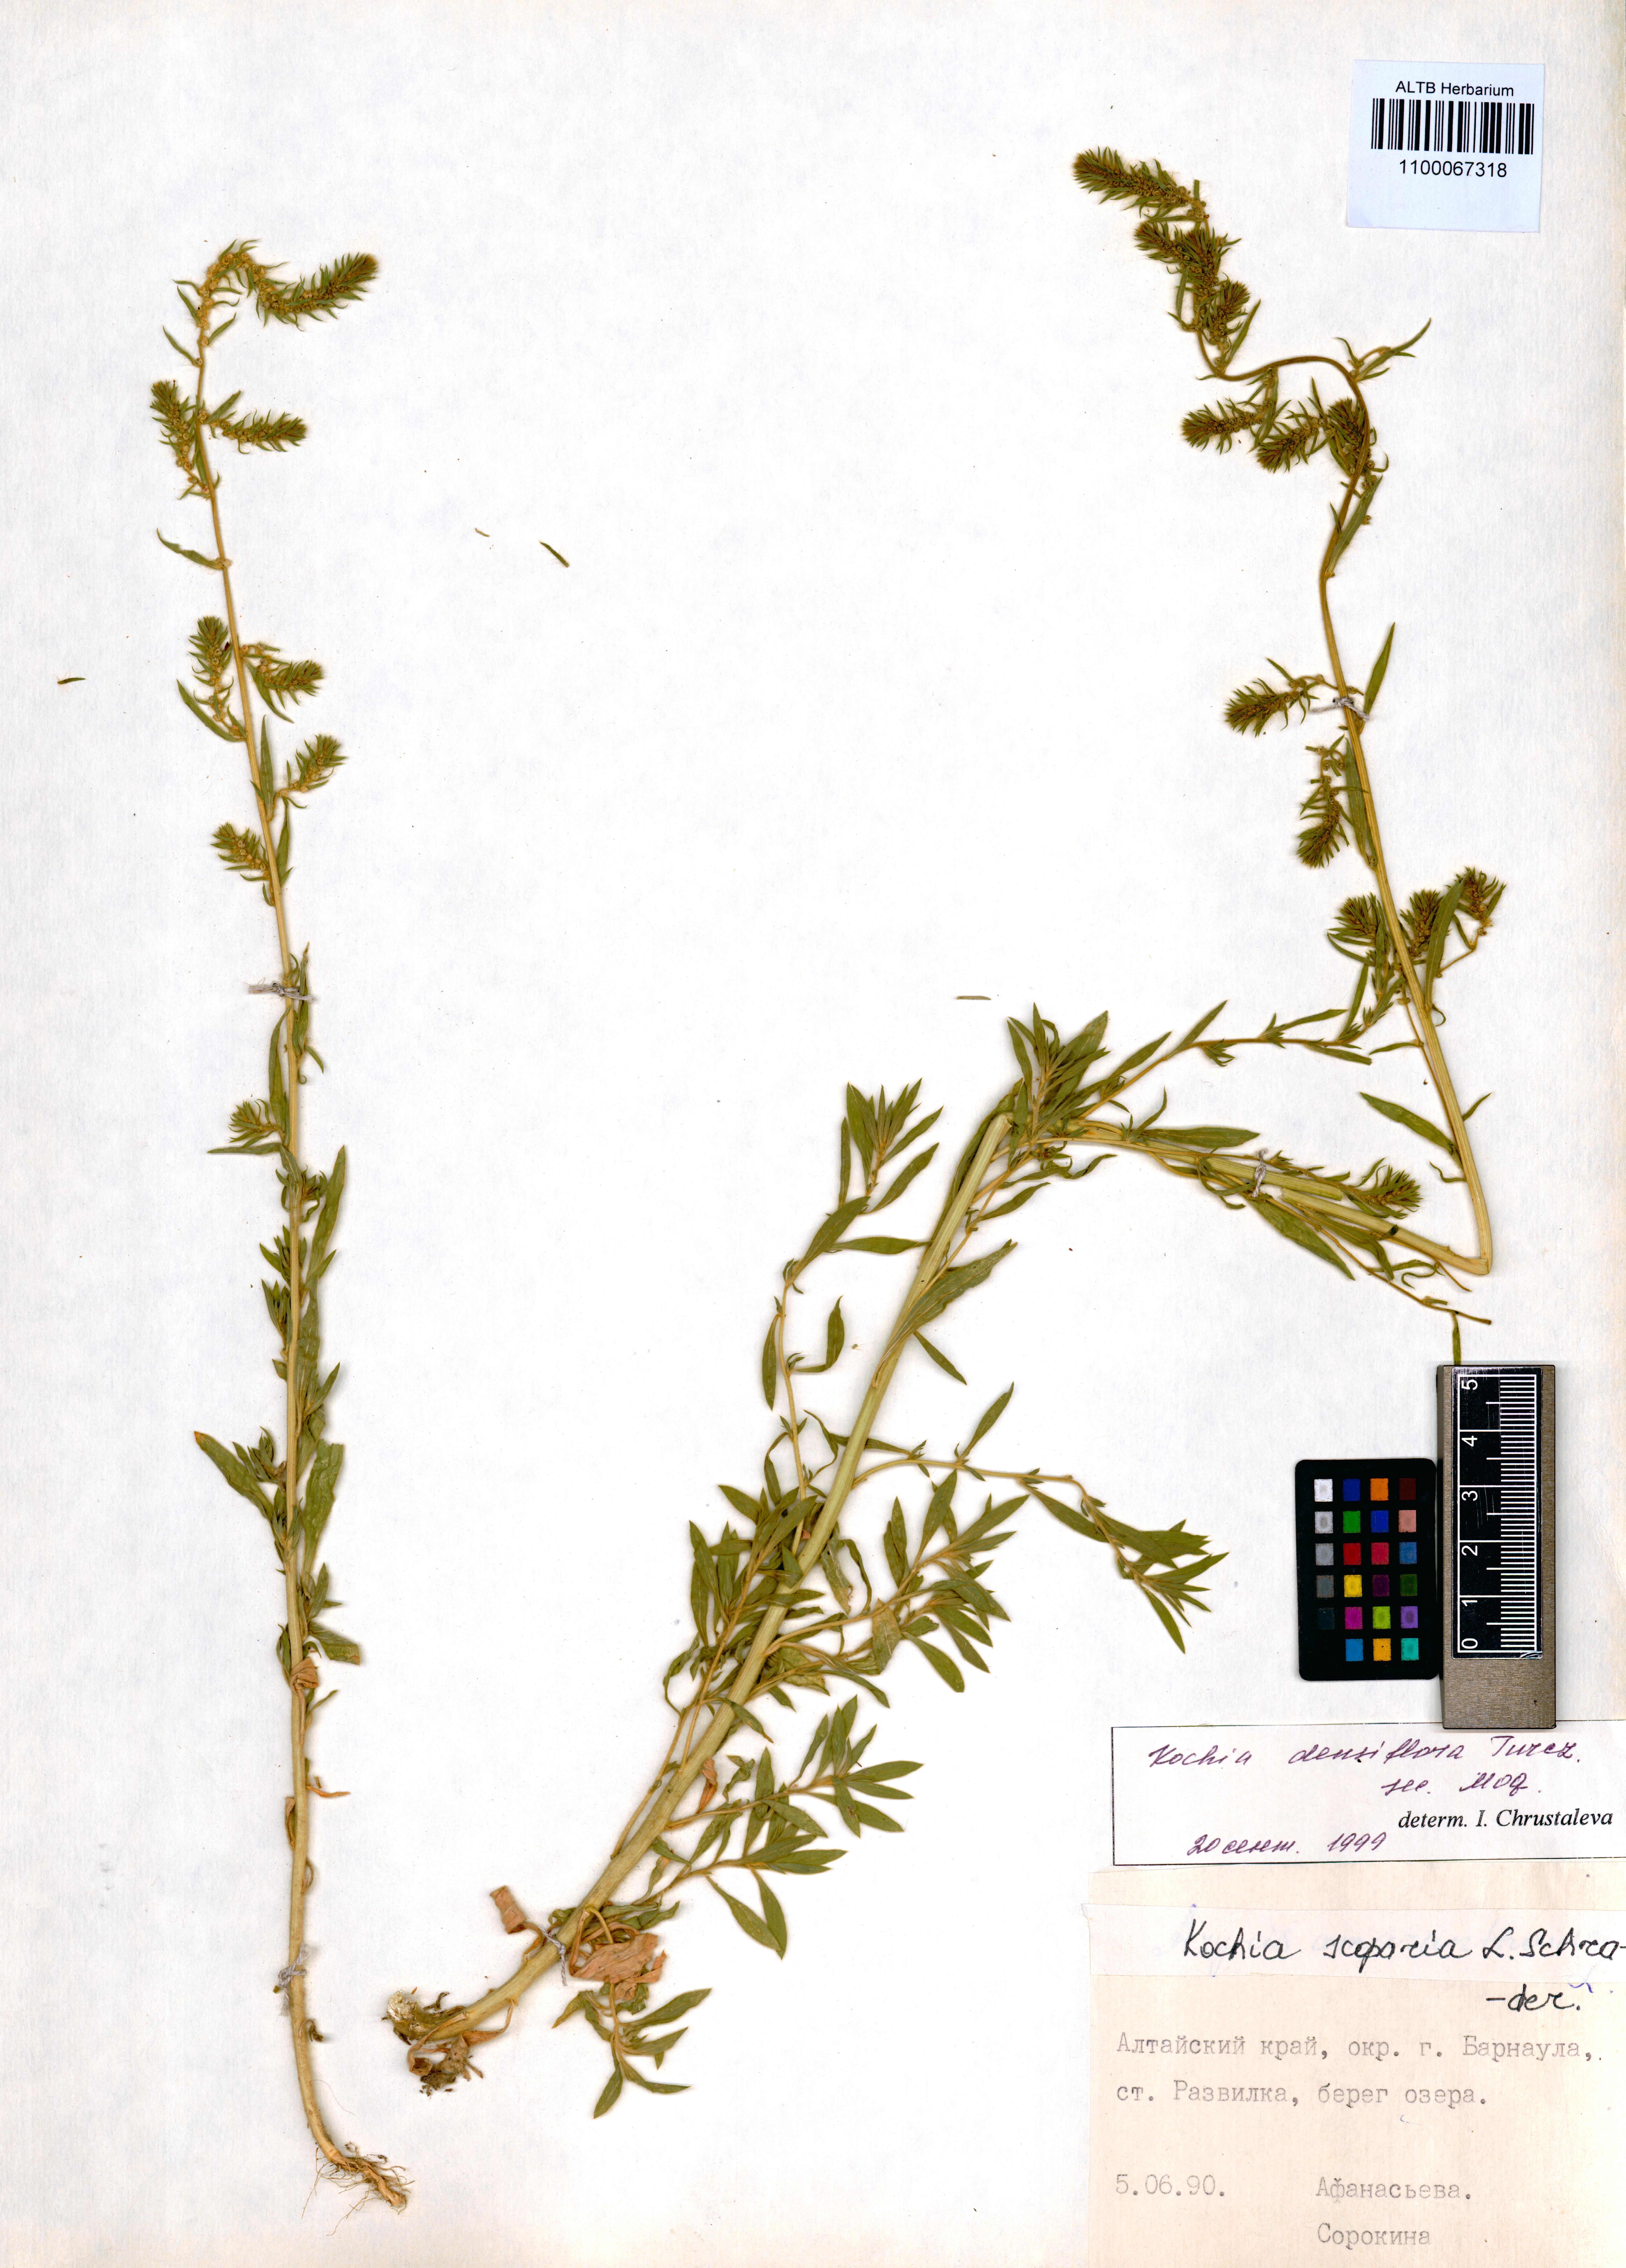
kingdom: Plantae
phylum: Tracheophyta
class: Magnoliopsida
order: Caryophyllales
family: Amaranthaceae
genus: Bassia
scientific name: Bassia scoparia
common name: Belvedere
